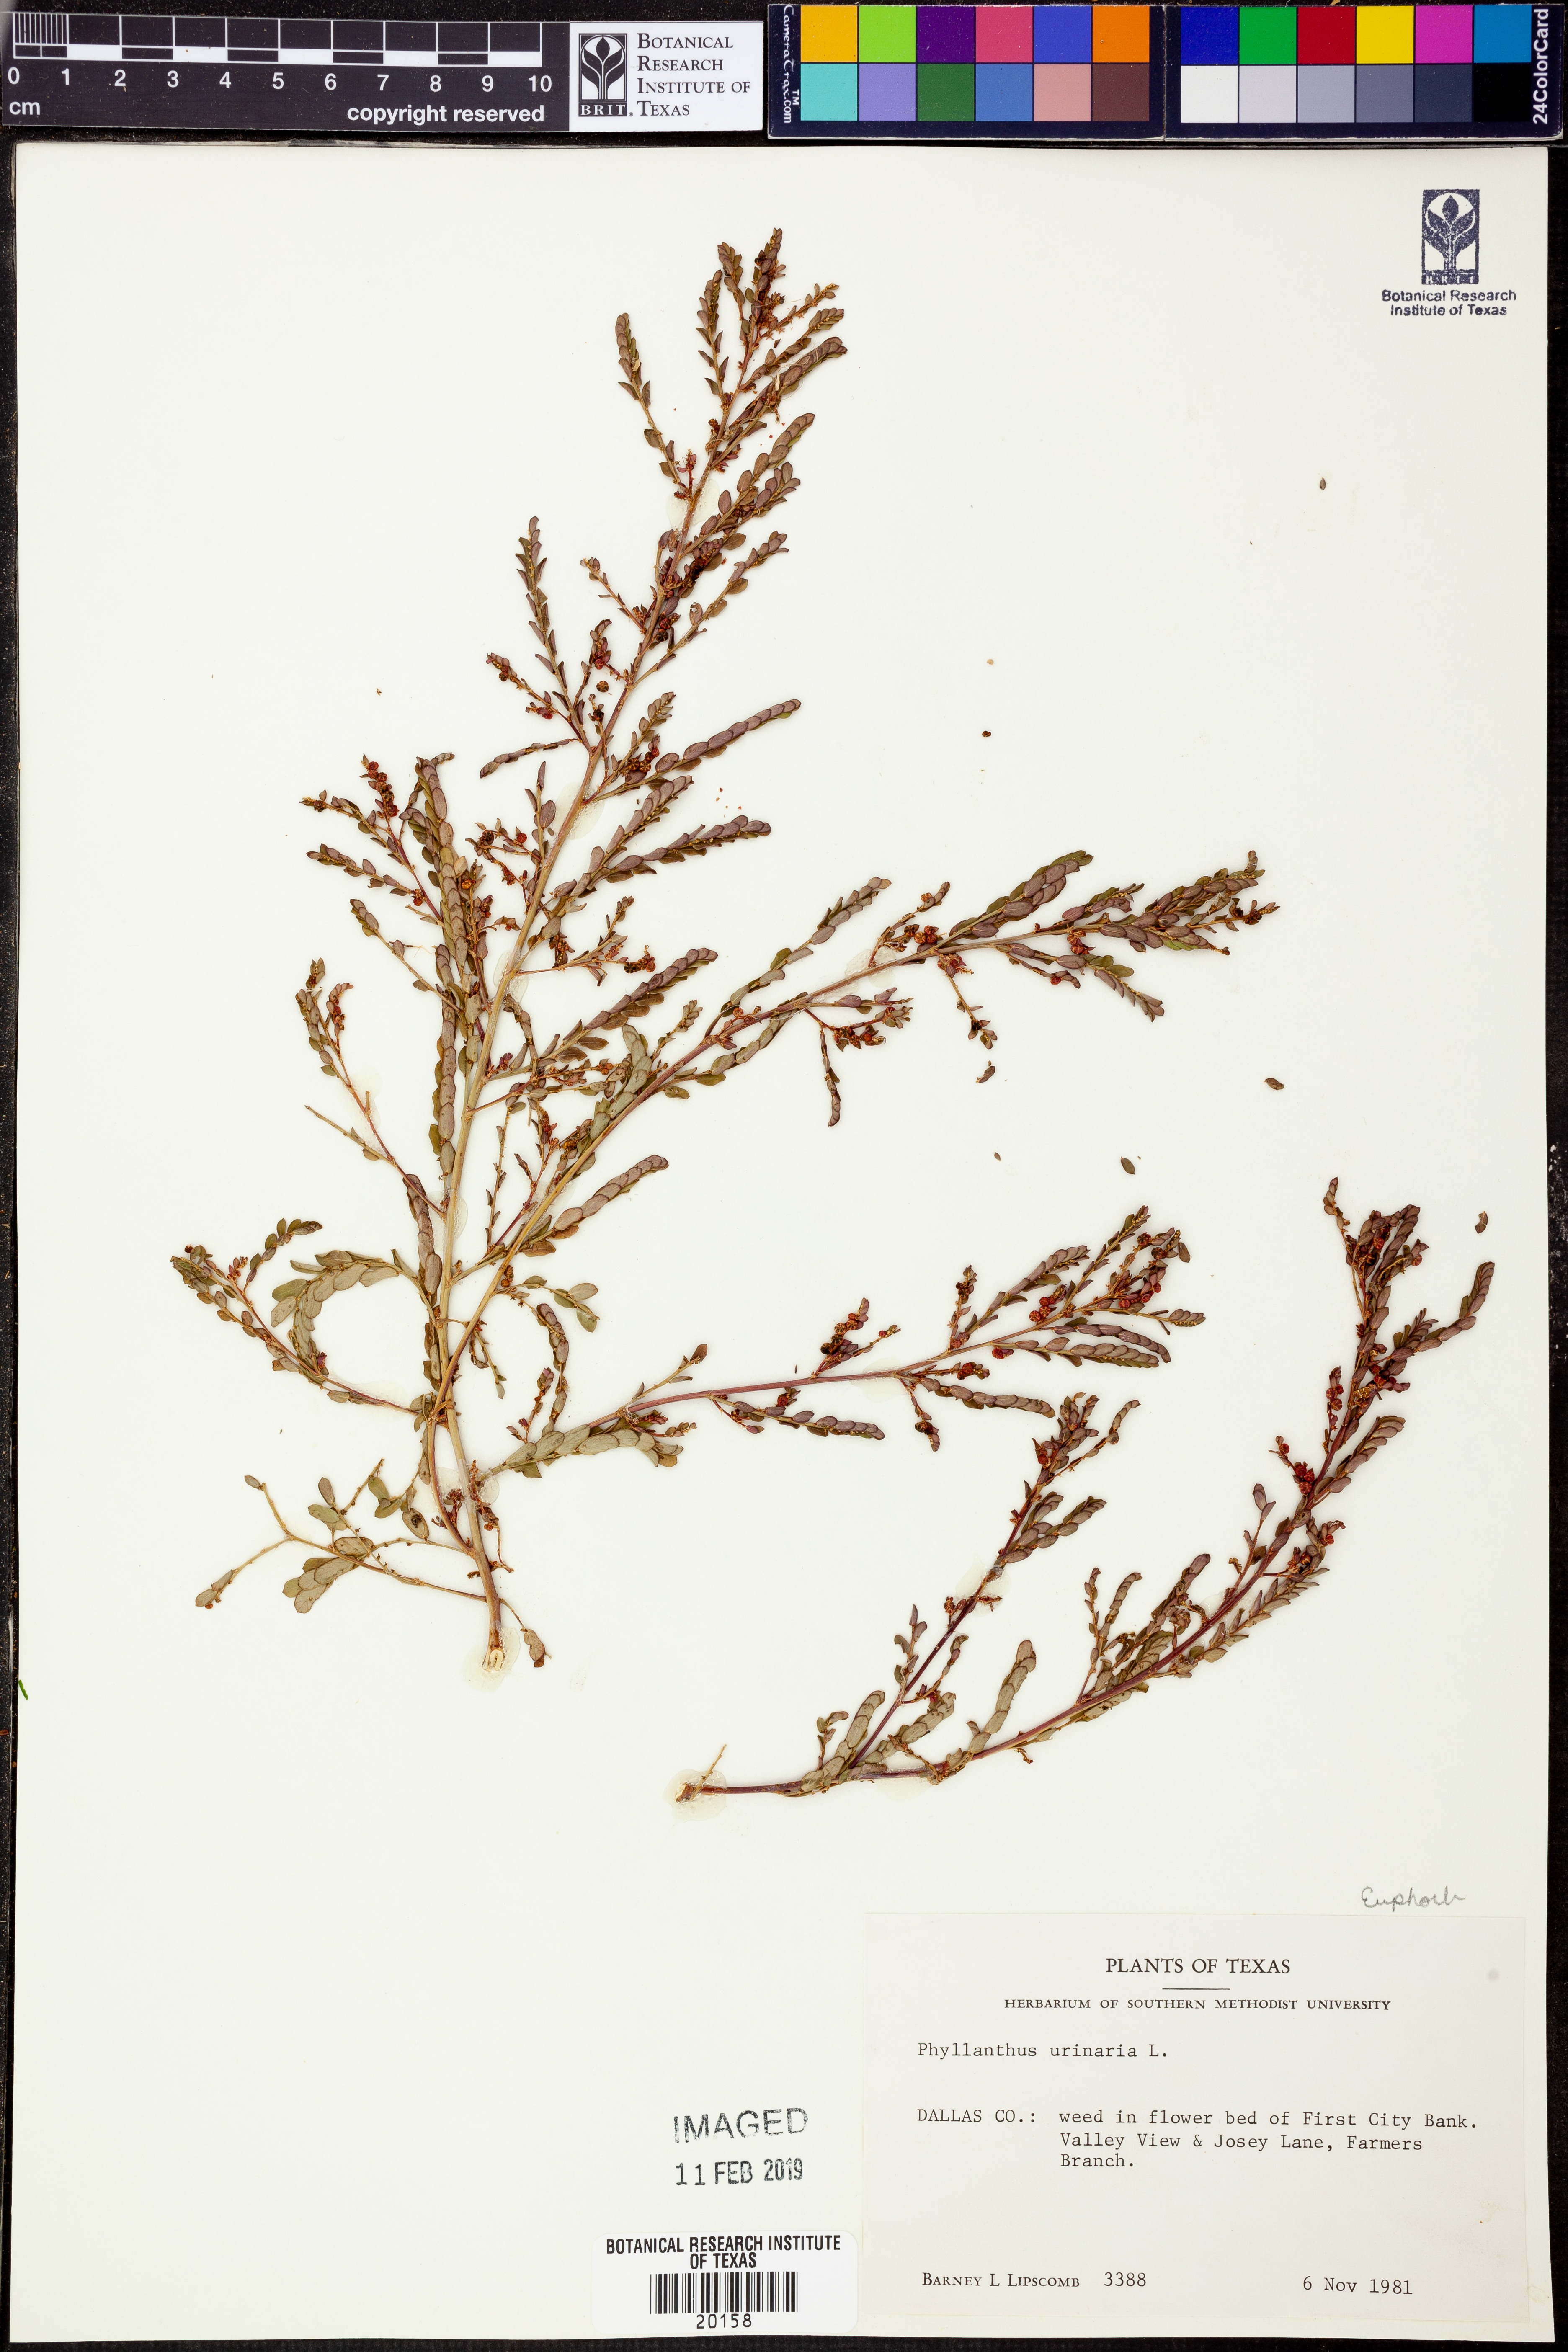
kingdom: Plantae
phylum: Tracheophyta
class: Magnoliopsida
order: Malpighiales
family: Phyllanthaceae
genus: Phyllanthus
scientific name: Phyllanthus urinaria
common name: Chamber bitter
